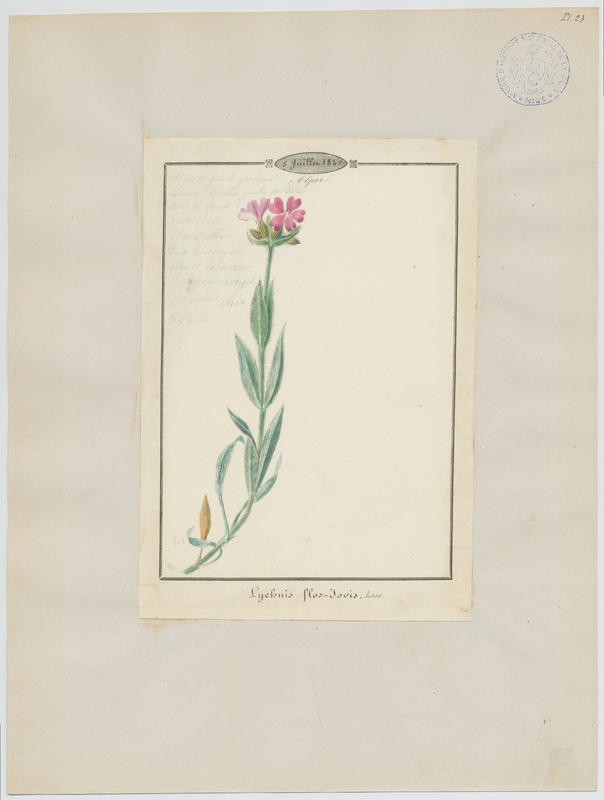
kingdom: Plantae
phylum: Tracheophyta
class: Magnoliopsida
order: Caryophyllales
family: Caryophyllaceae
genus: Silene
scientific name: Silene flos-jovis
